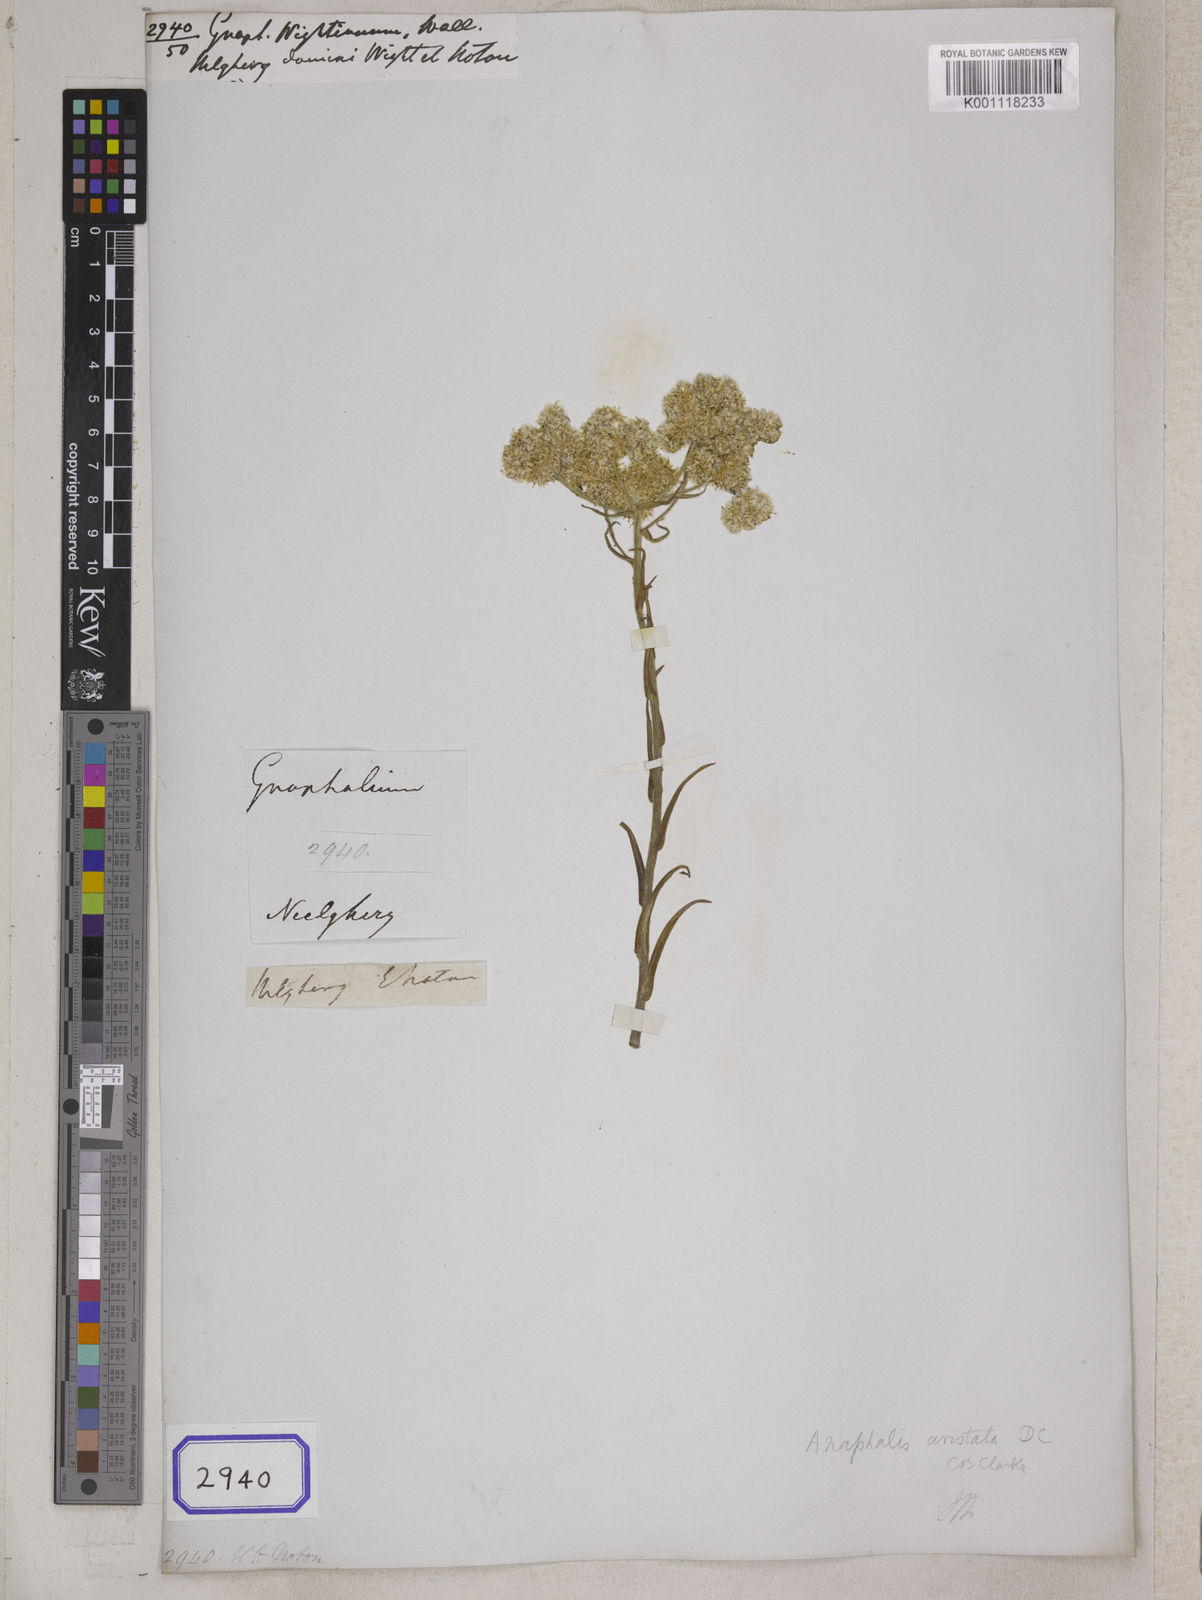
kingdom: Plantae
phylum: Tracheophyta
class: Magnoliopsida
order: Asterales
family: Asteraceae
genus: Gnaphalium
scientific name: Gnaphalium
